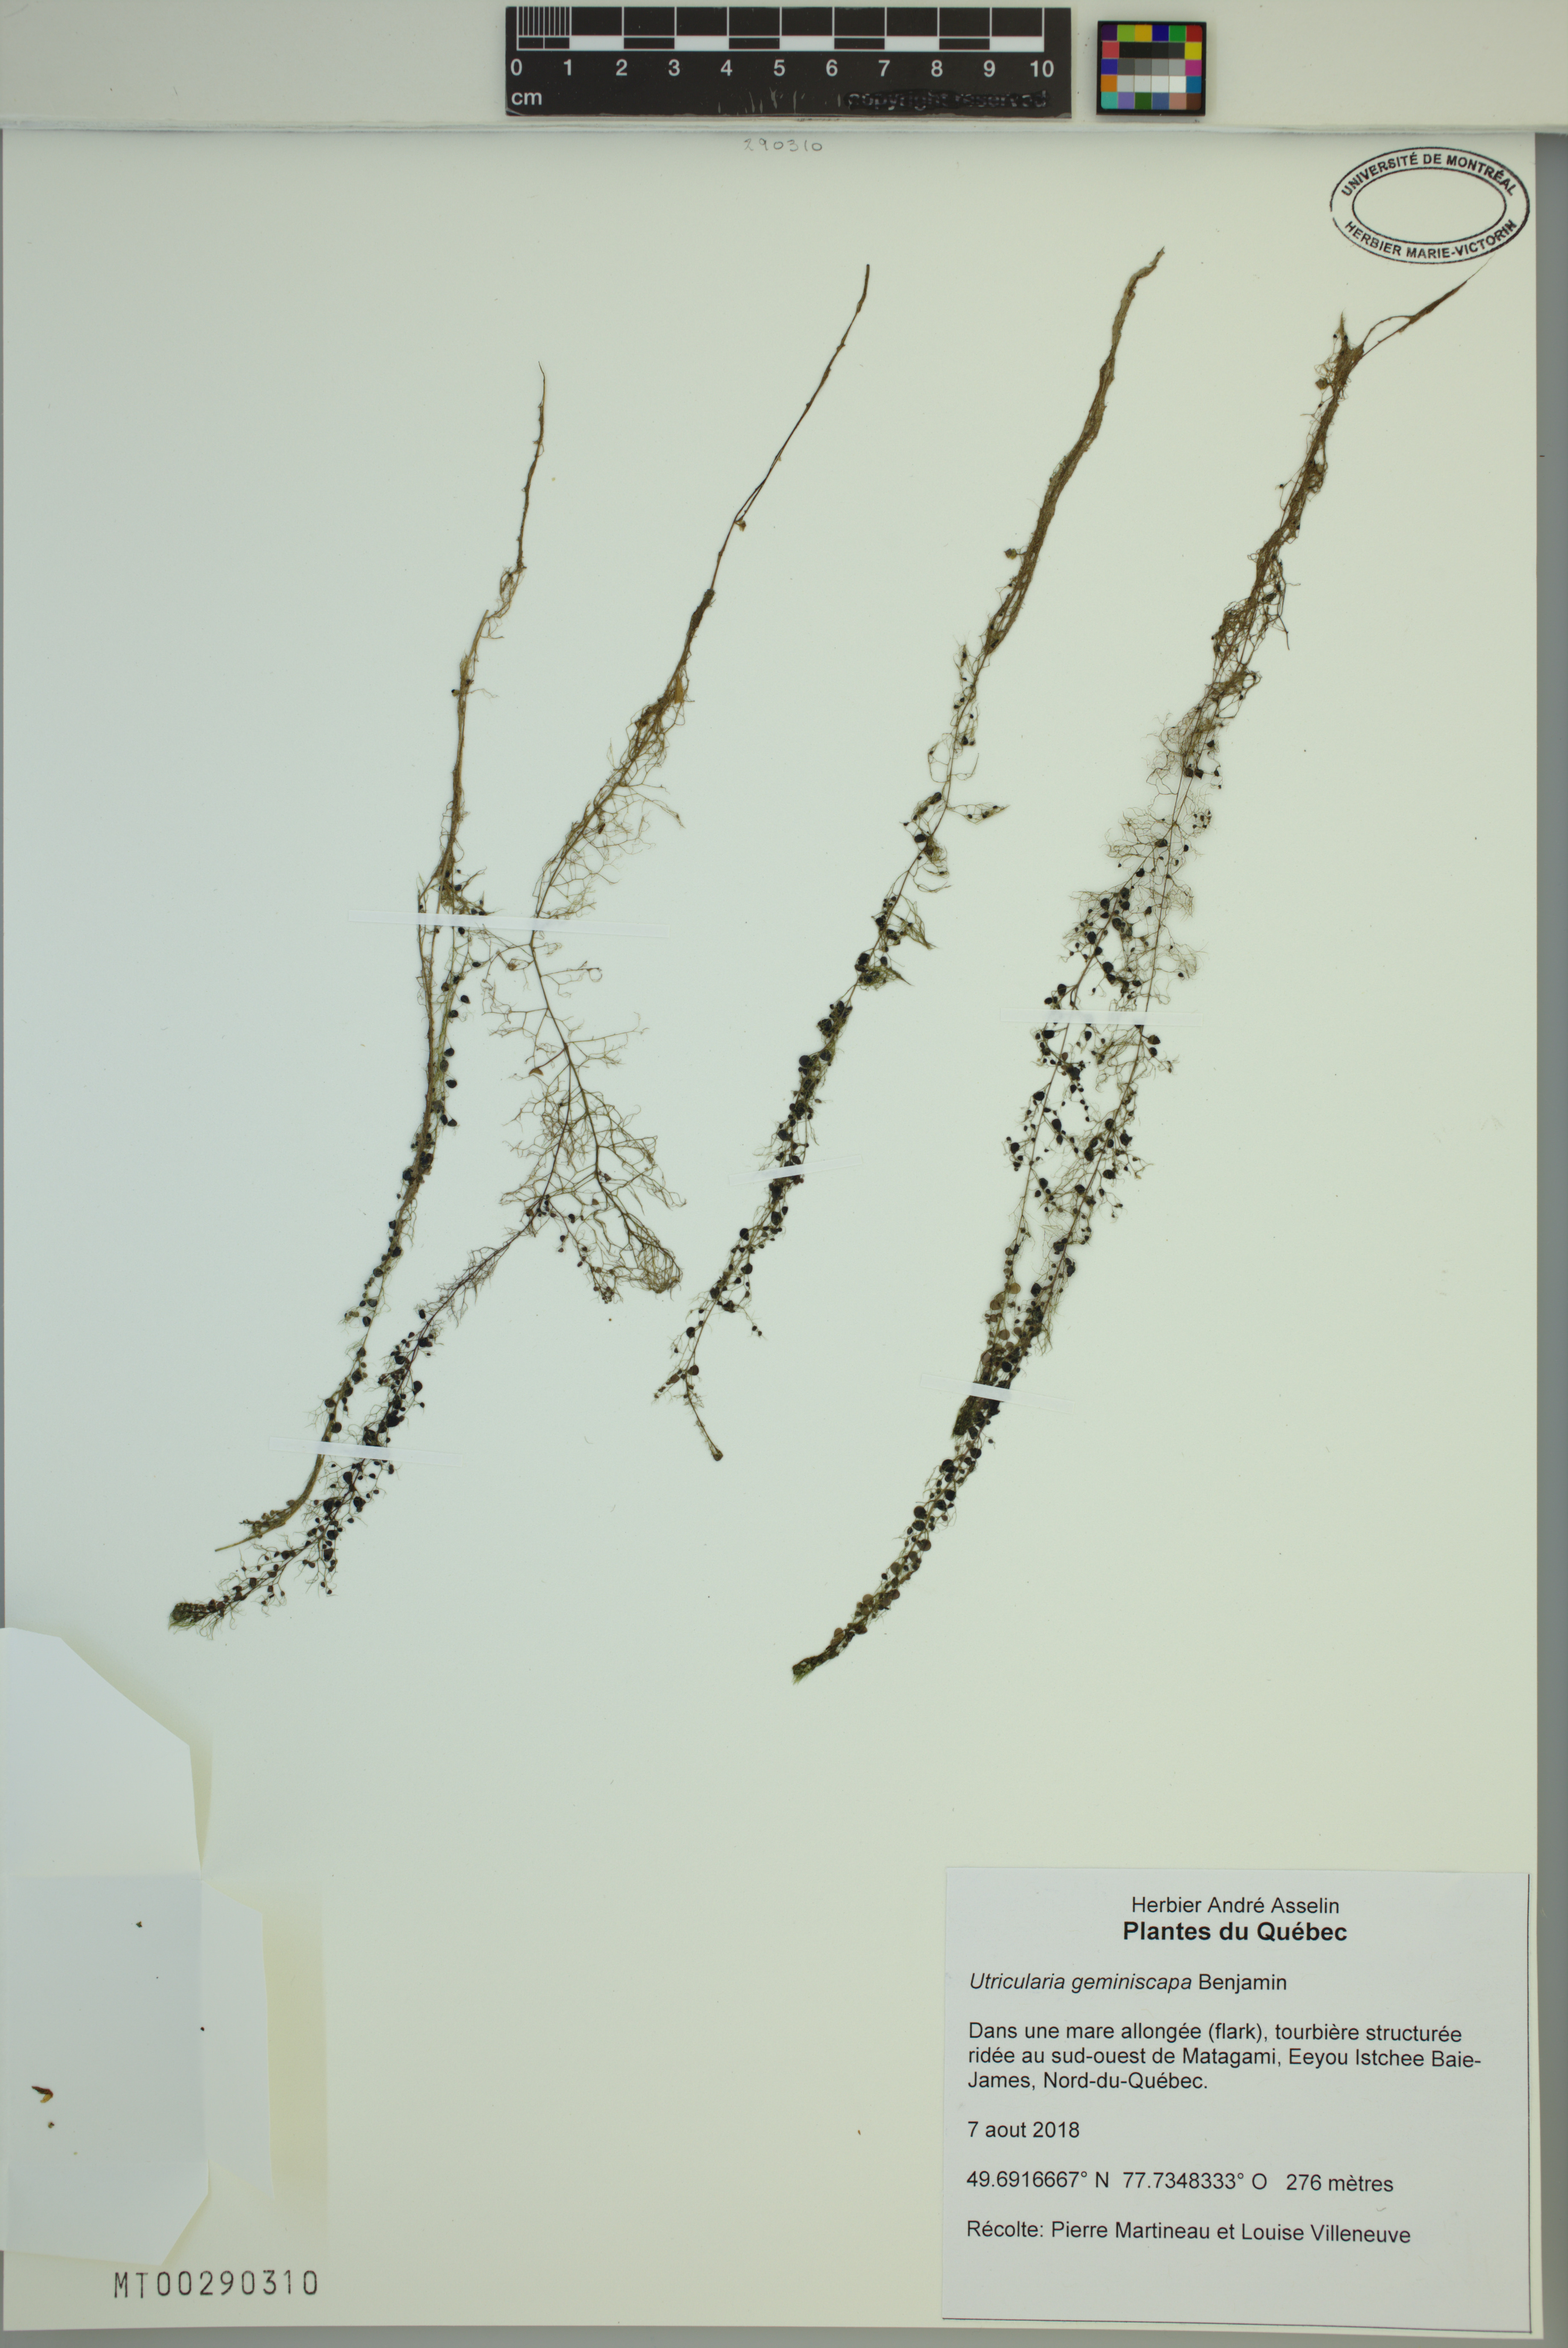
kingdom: Plantae
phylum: Tracheophyta
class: Magnoliopsida
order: Lamiales
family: Lentibulariaceae
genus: Utricularia
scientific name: Utricularia geminiscapa
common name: Hidden-fruit bladderwort
